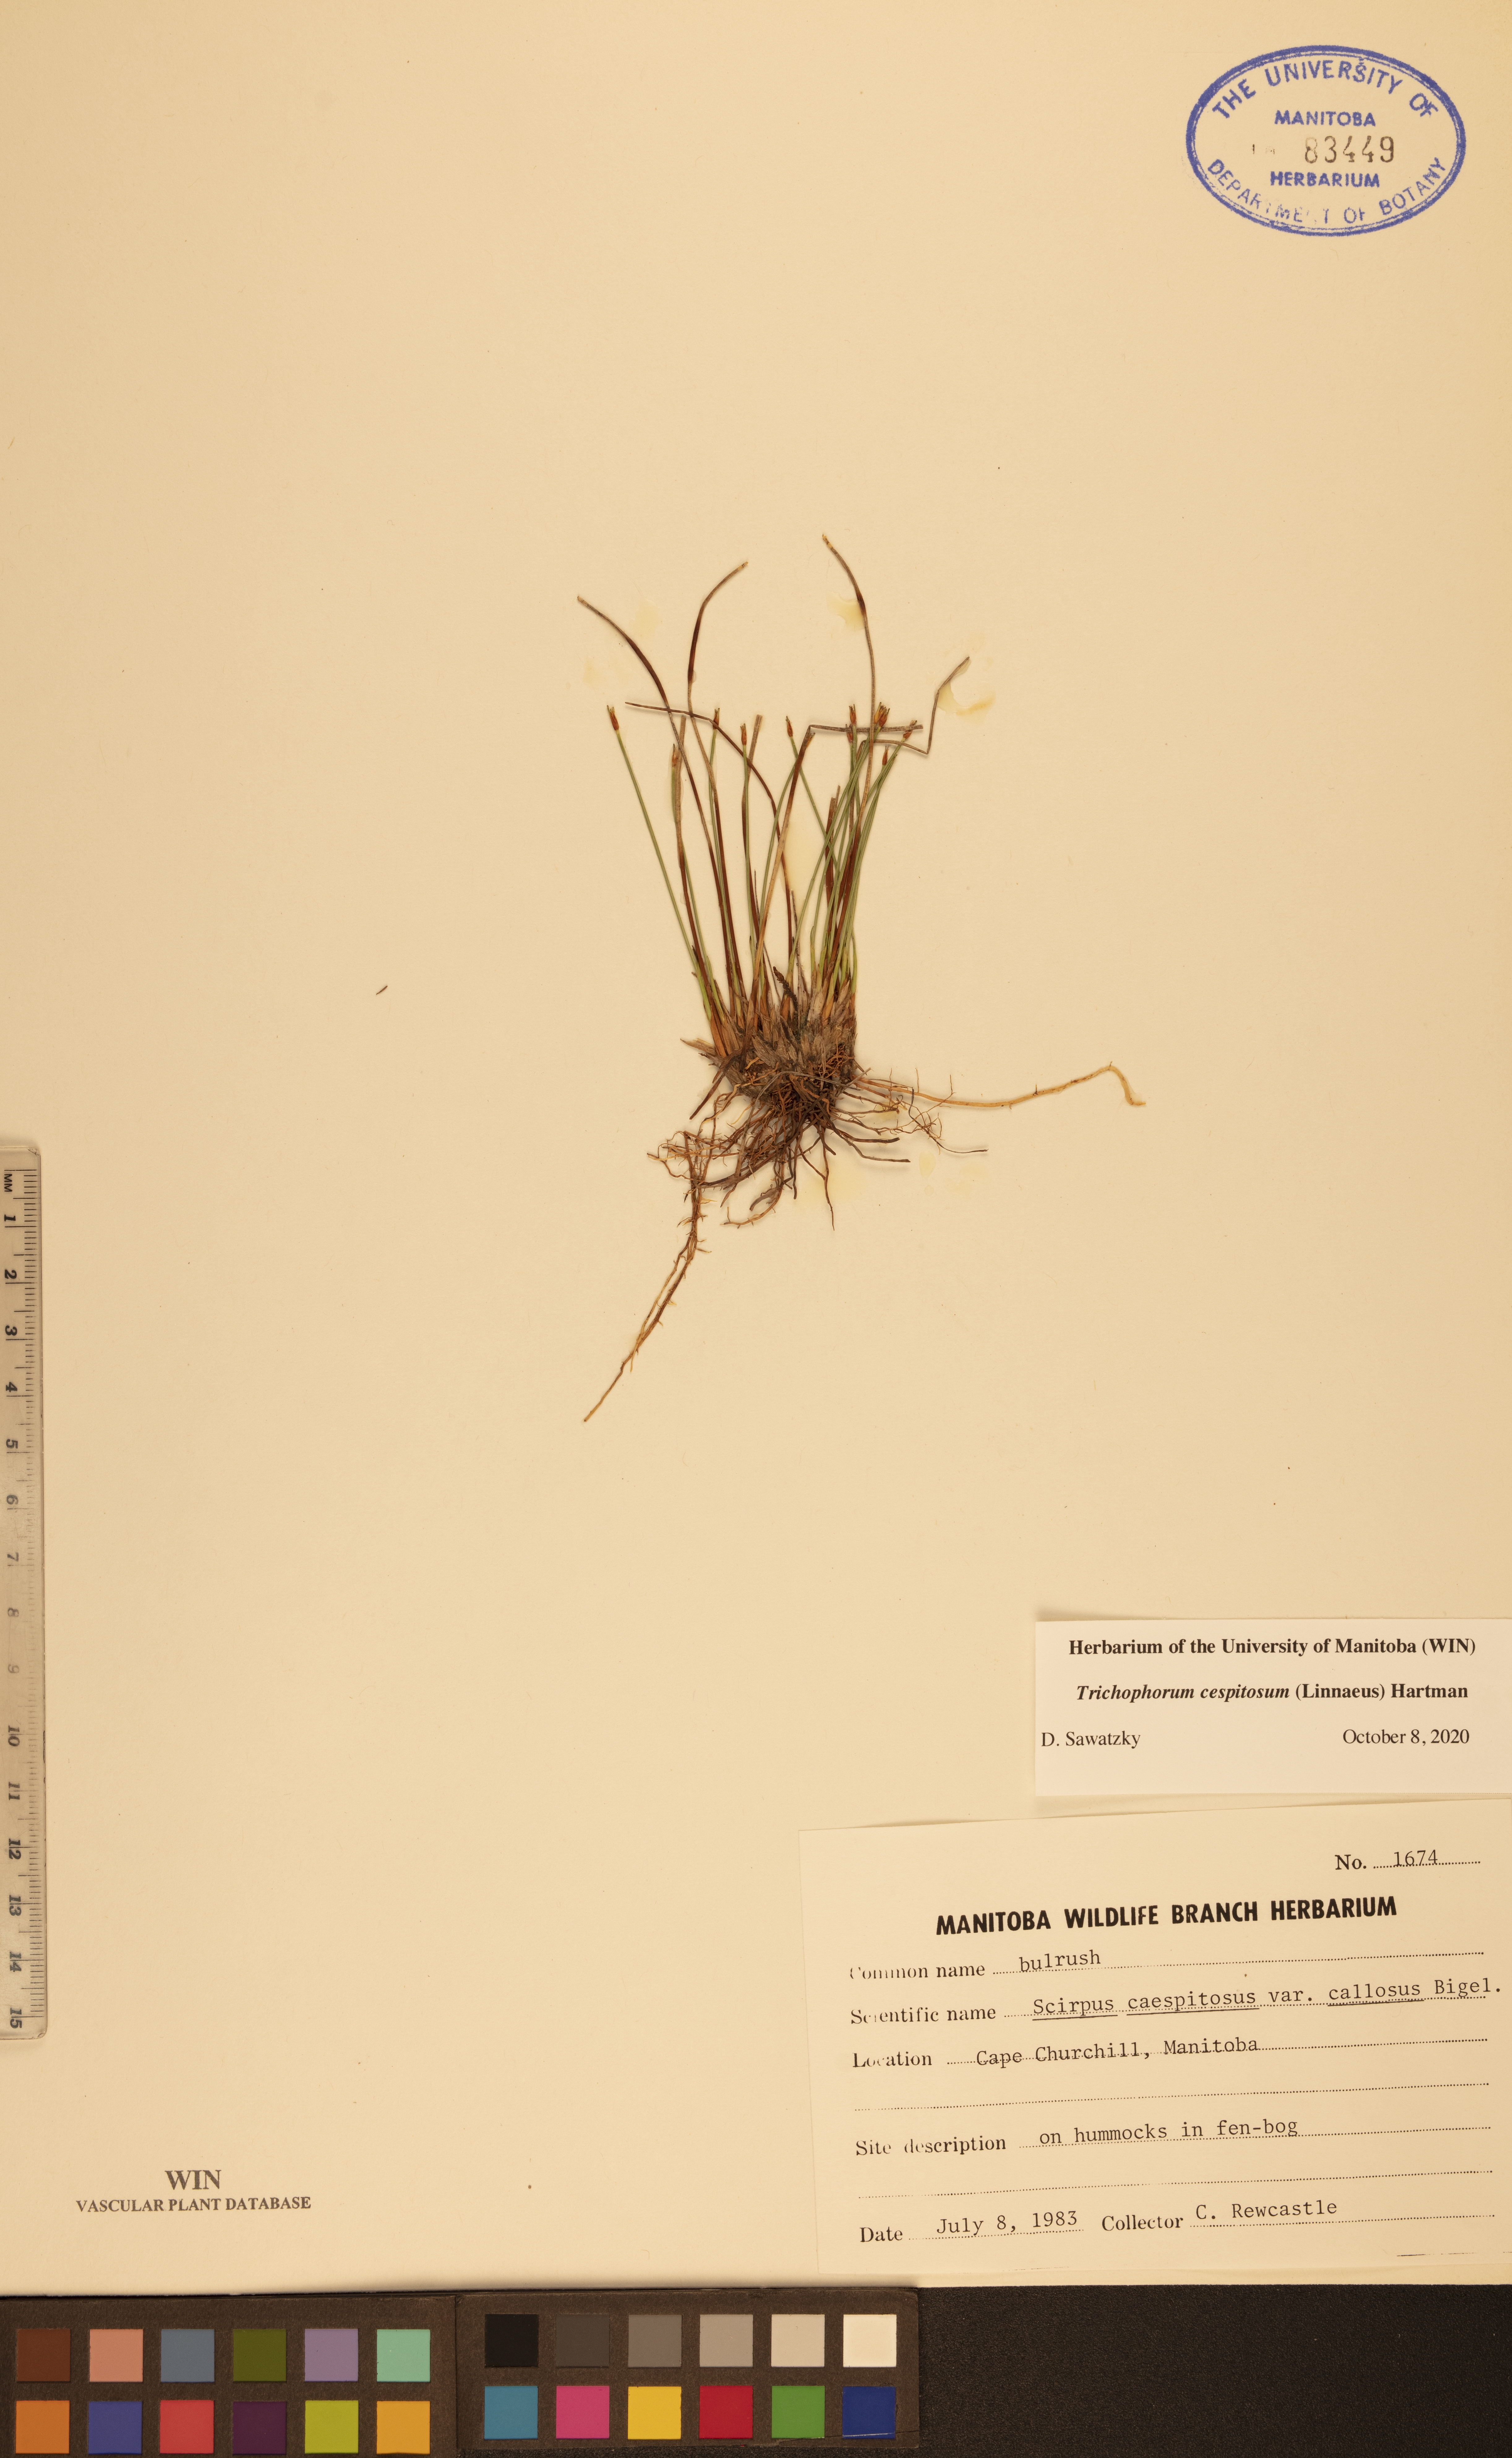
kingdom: Plantae
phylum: Tracheophyta
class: Liliopsida
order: Poales
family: Cyperaceae
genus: Trichophorum
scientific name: Trichophorum cespitosum
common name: Cespitose bulrush
